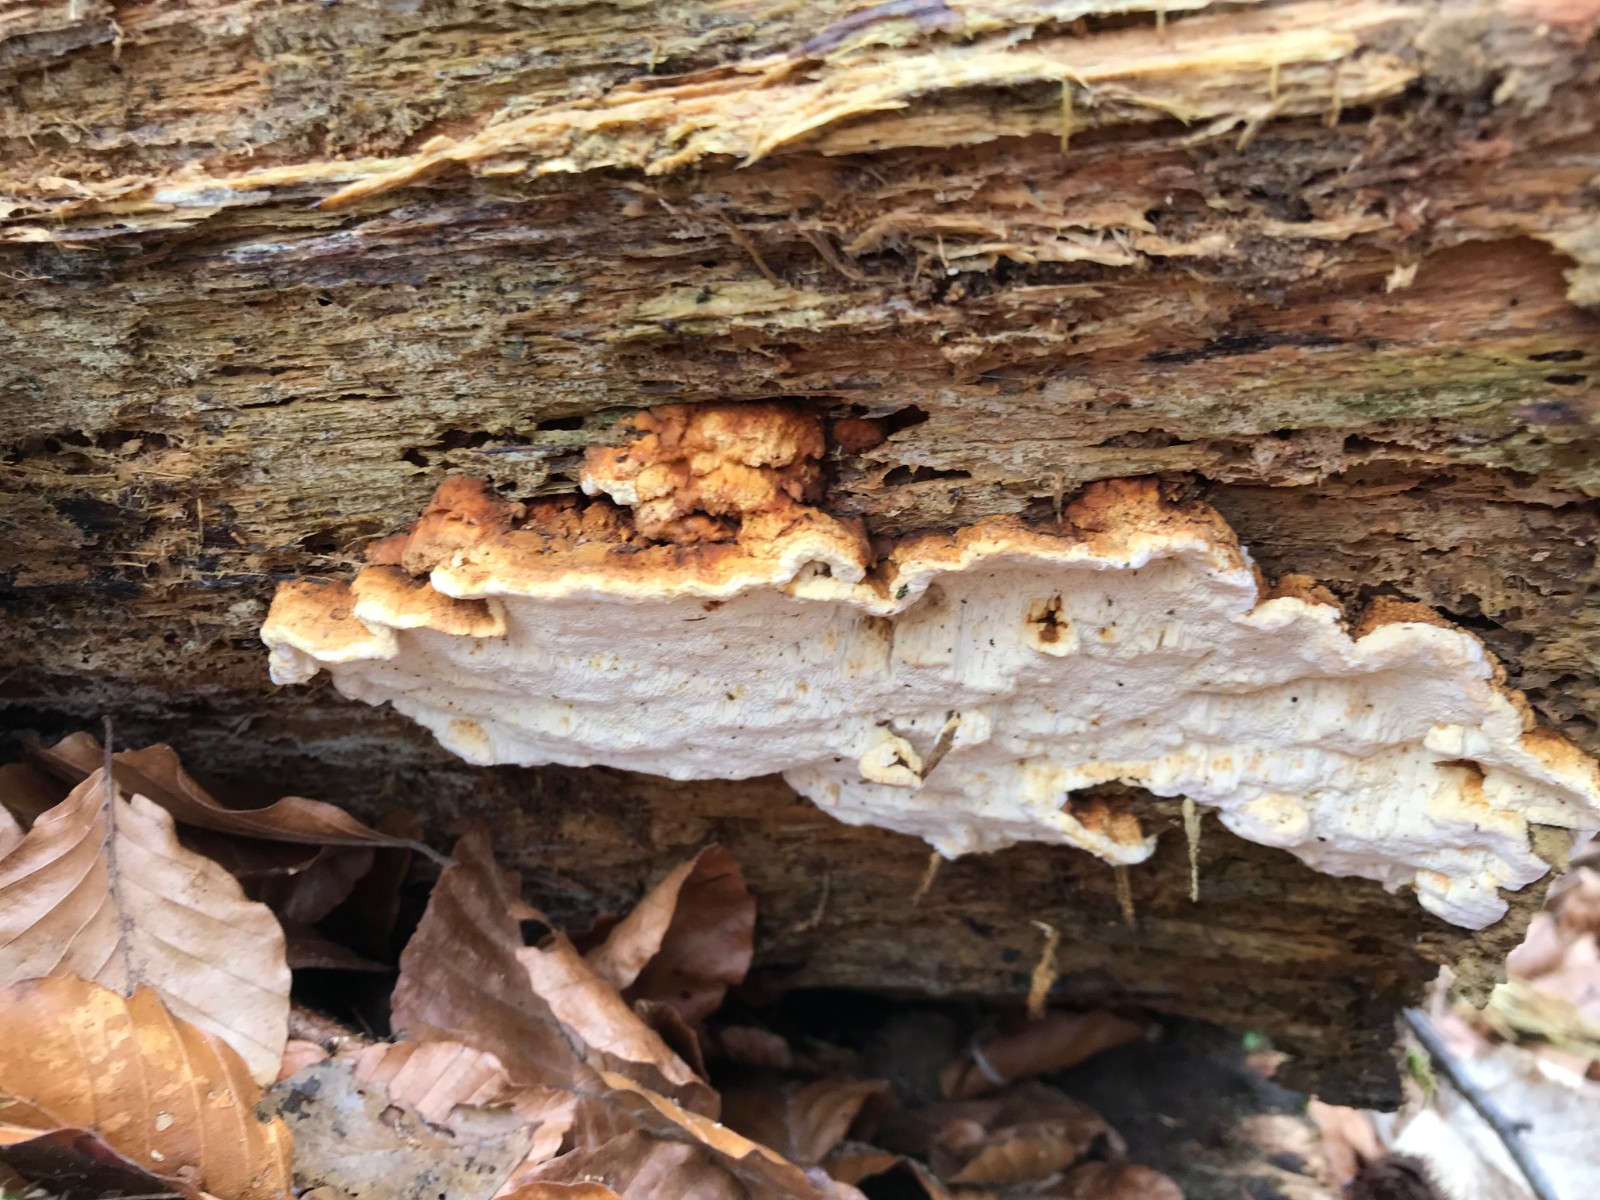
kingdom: Fungi
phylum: Basidiomycota
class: Agaricomycetes
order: Polyporales
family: Fomitopsidaceae
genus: Neoantrodia
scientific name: Neoantrodia serialis
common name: række-sejporesvamp
